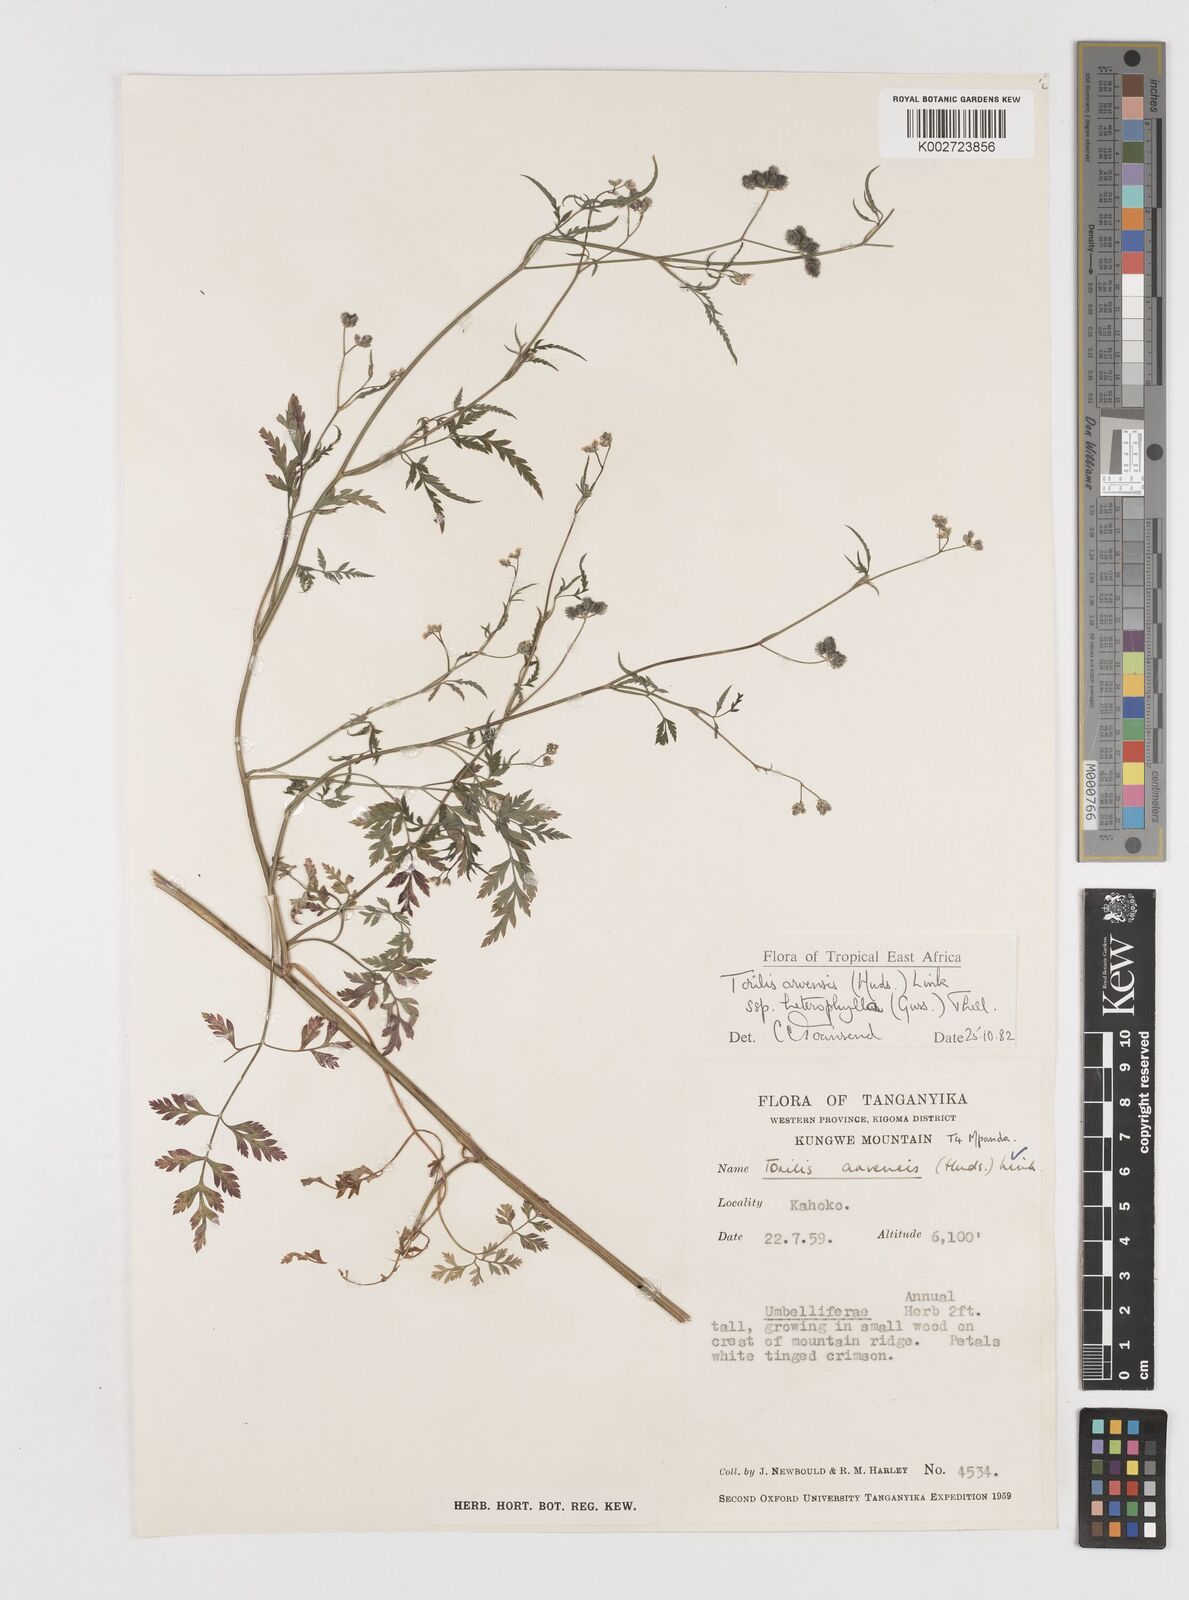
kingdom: Plantae
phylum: Tracheophyta
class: Magnoliopsida
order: Apiales
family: Apiaceae
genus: Torilis
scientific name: Torilis arvensis
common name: Spreading hedge-parsley
